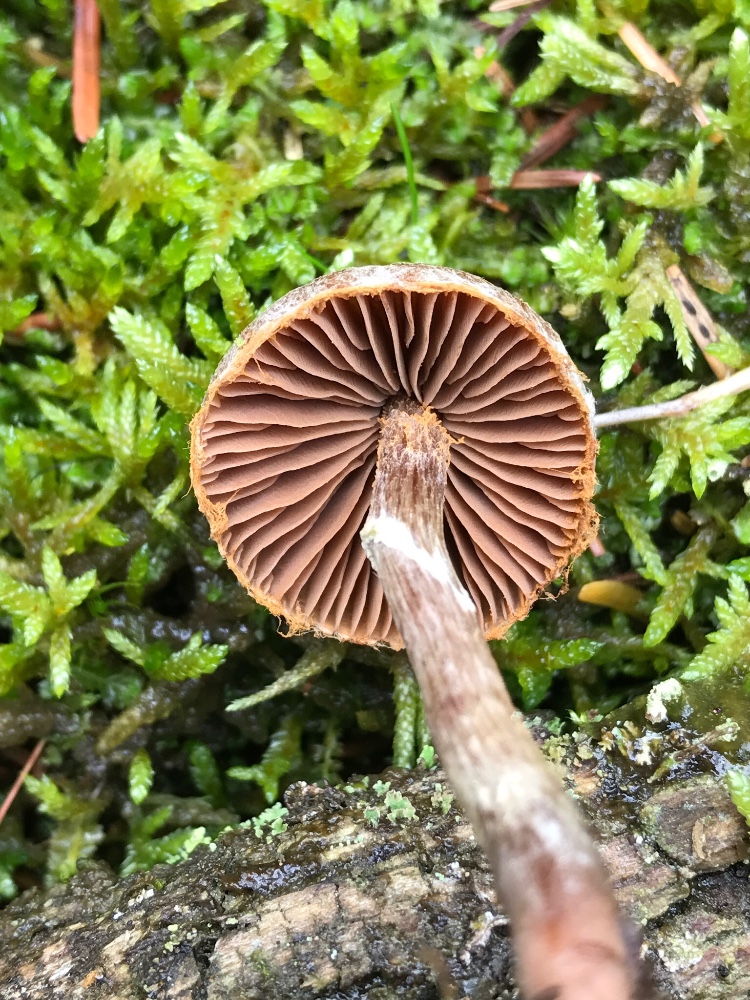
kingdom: Fungi
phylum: Basidiomycota
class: Agaricomycetes
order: Agaricales
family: Cortinariaceae
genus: Cortinarius
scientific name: Cortinarius
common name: pelargonie-slørhat
